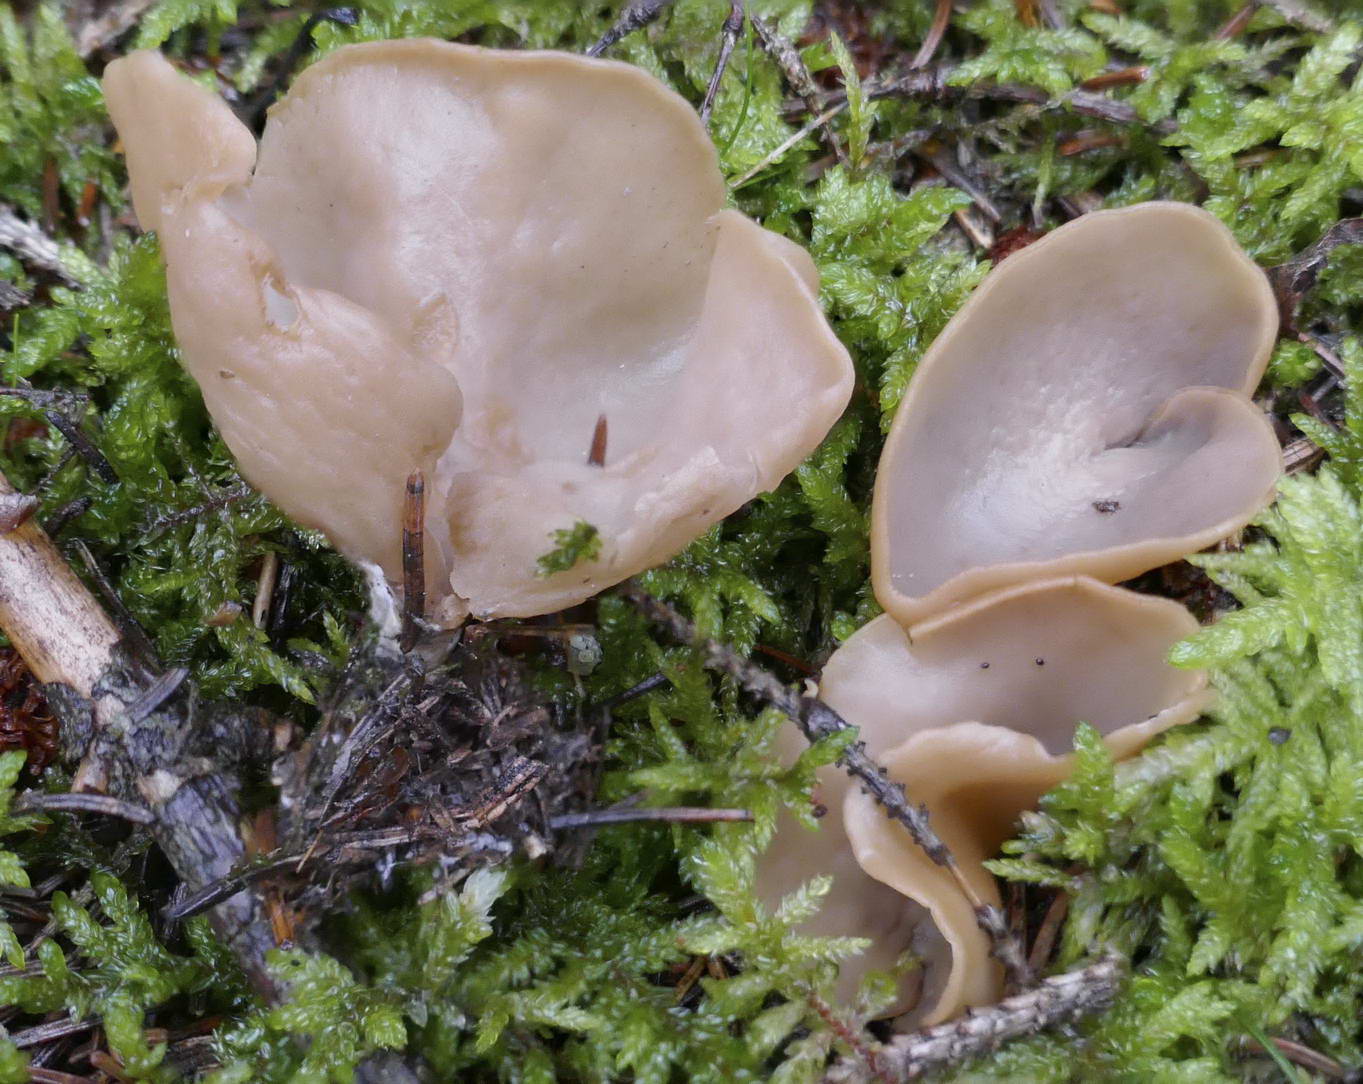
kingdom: Fungi
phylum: Ascomycota
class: Pezizomycetes
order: Pezizales
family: Otideaceae
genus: Otidea
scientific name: Otidea
